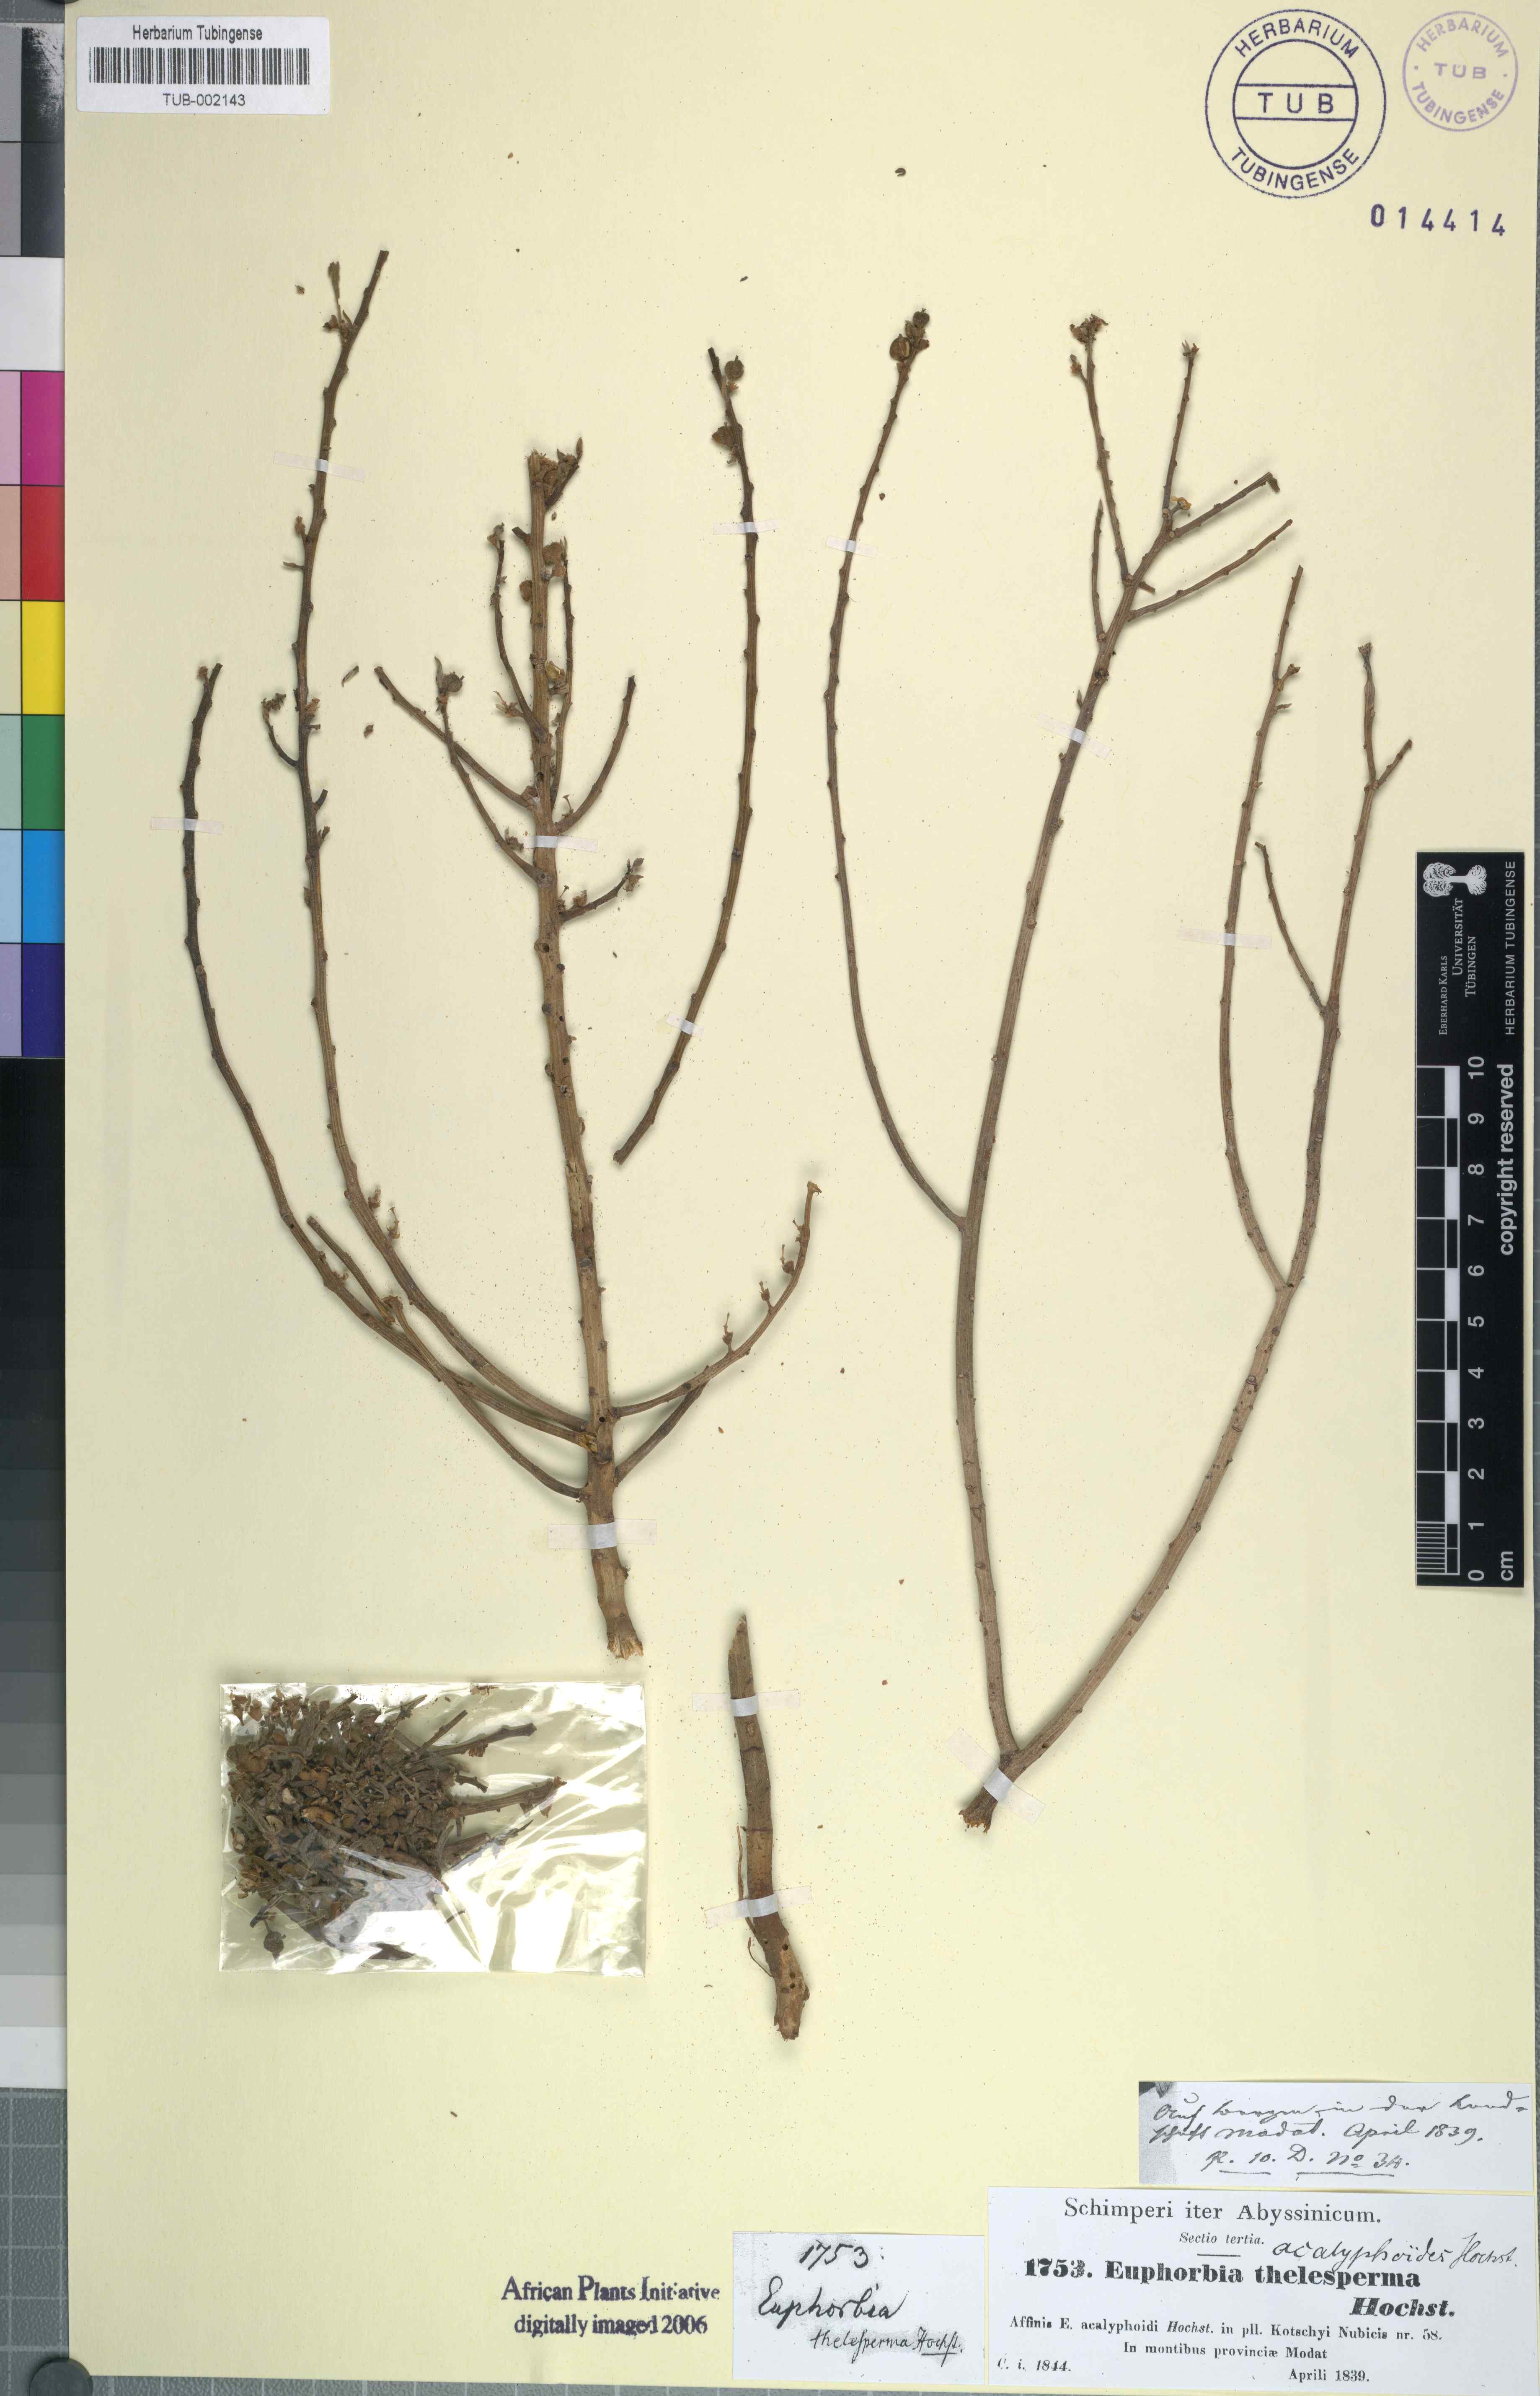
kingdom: Plantae
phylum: Tracheophyta
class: Magnoliopsida
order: Malpighiales
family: Euphorbiaceae
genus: Euphorbia
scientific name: Euphorbia acalyphoides
